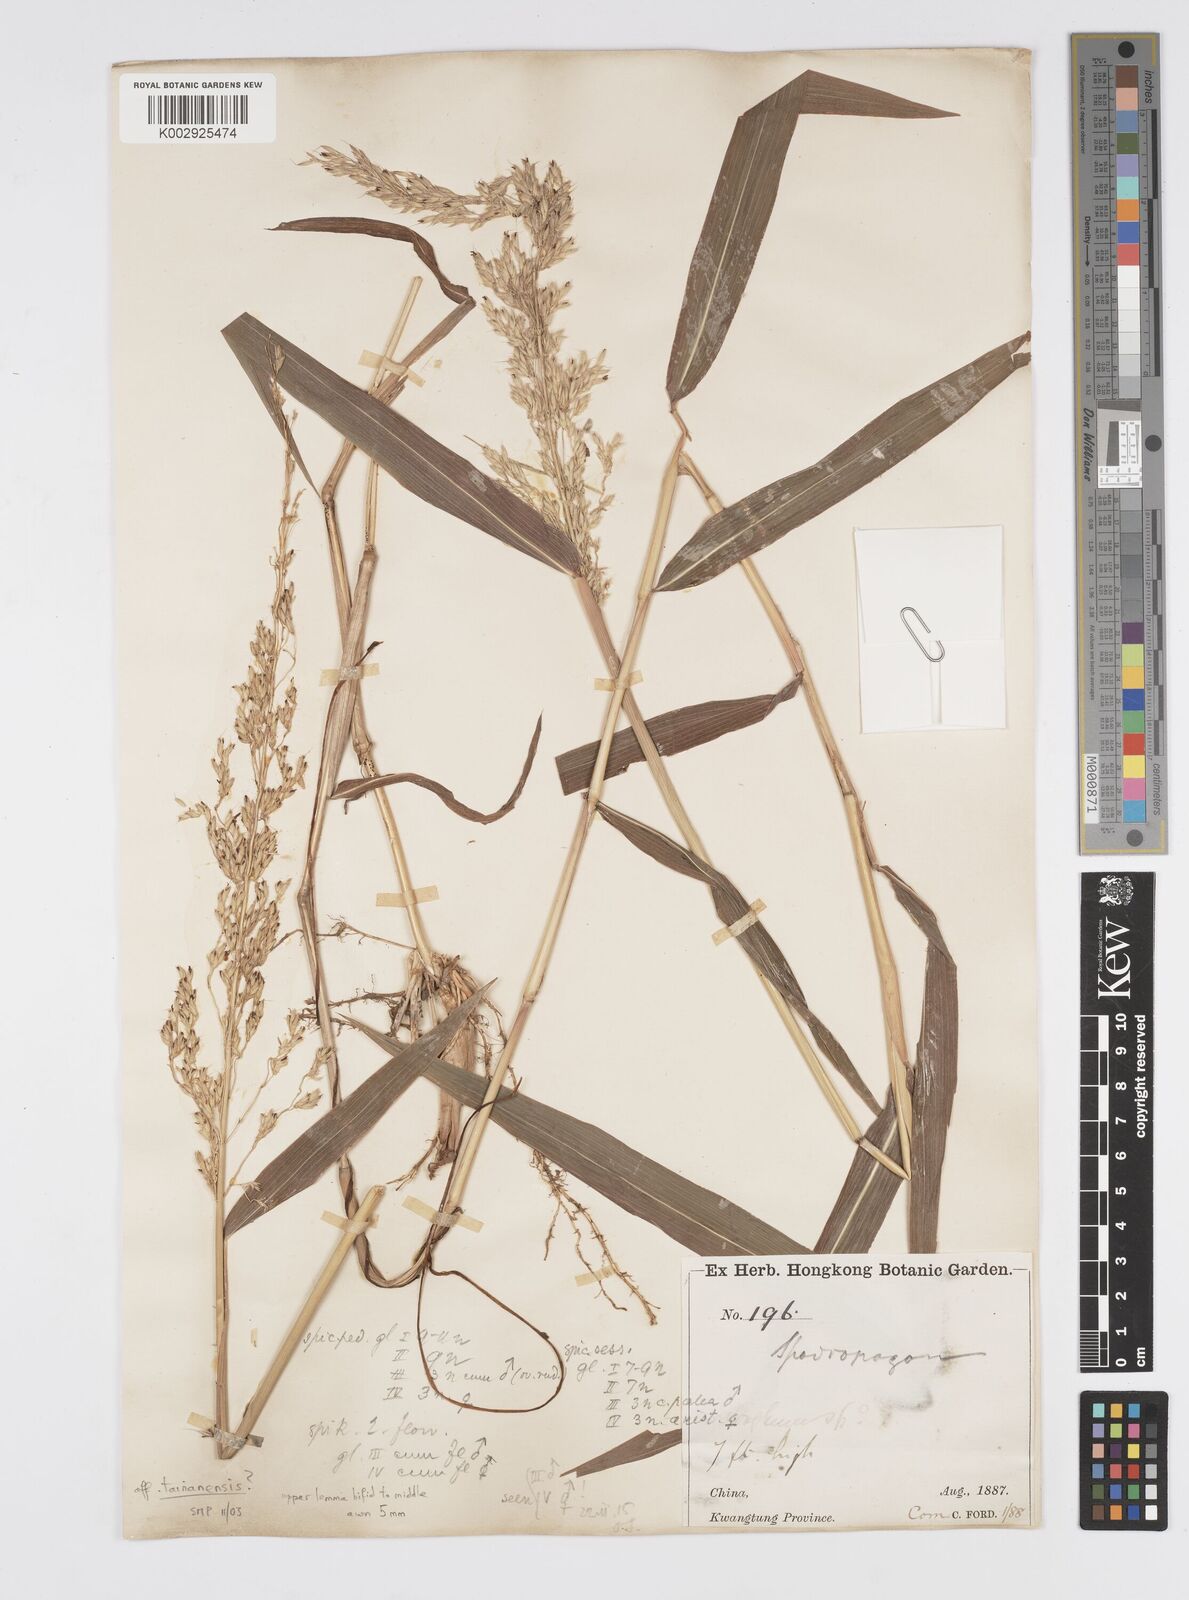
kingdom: Plantae
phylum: Tracheophyta
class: Liliopsida
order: Poales
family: Poaceae
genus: Spodiopogon
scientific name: Spodiopogon tainanensis
